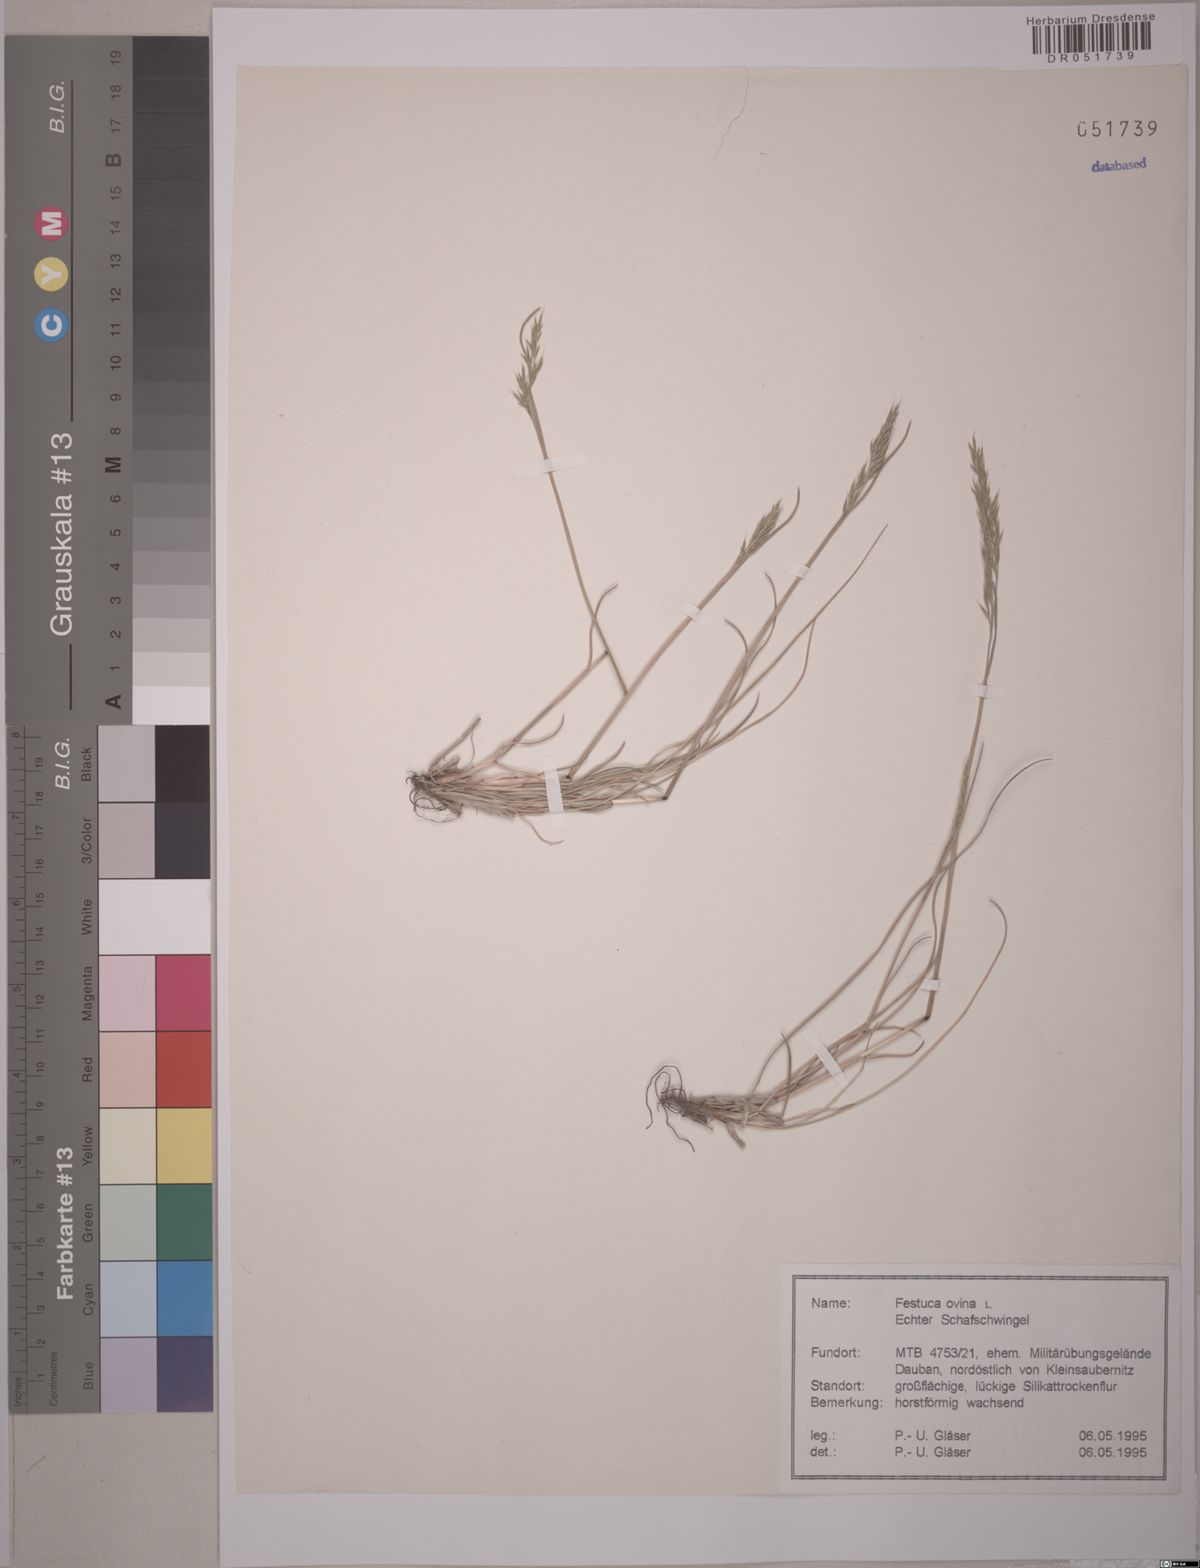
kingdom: Plantae
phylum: Tracheophyta
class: Liliopsida
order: Poales
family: Poaceae
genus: Festuca
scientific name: Festuca ovina
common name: Sheep fescue
